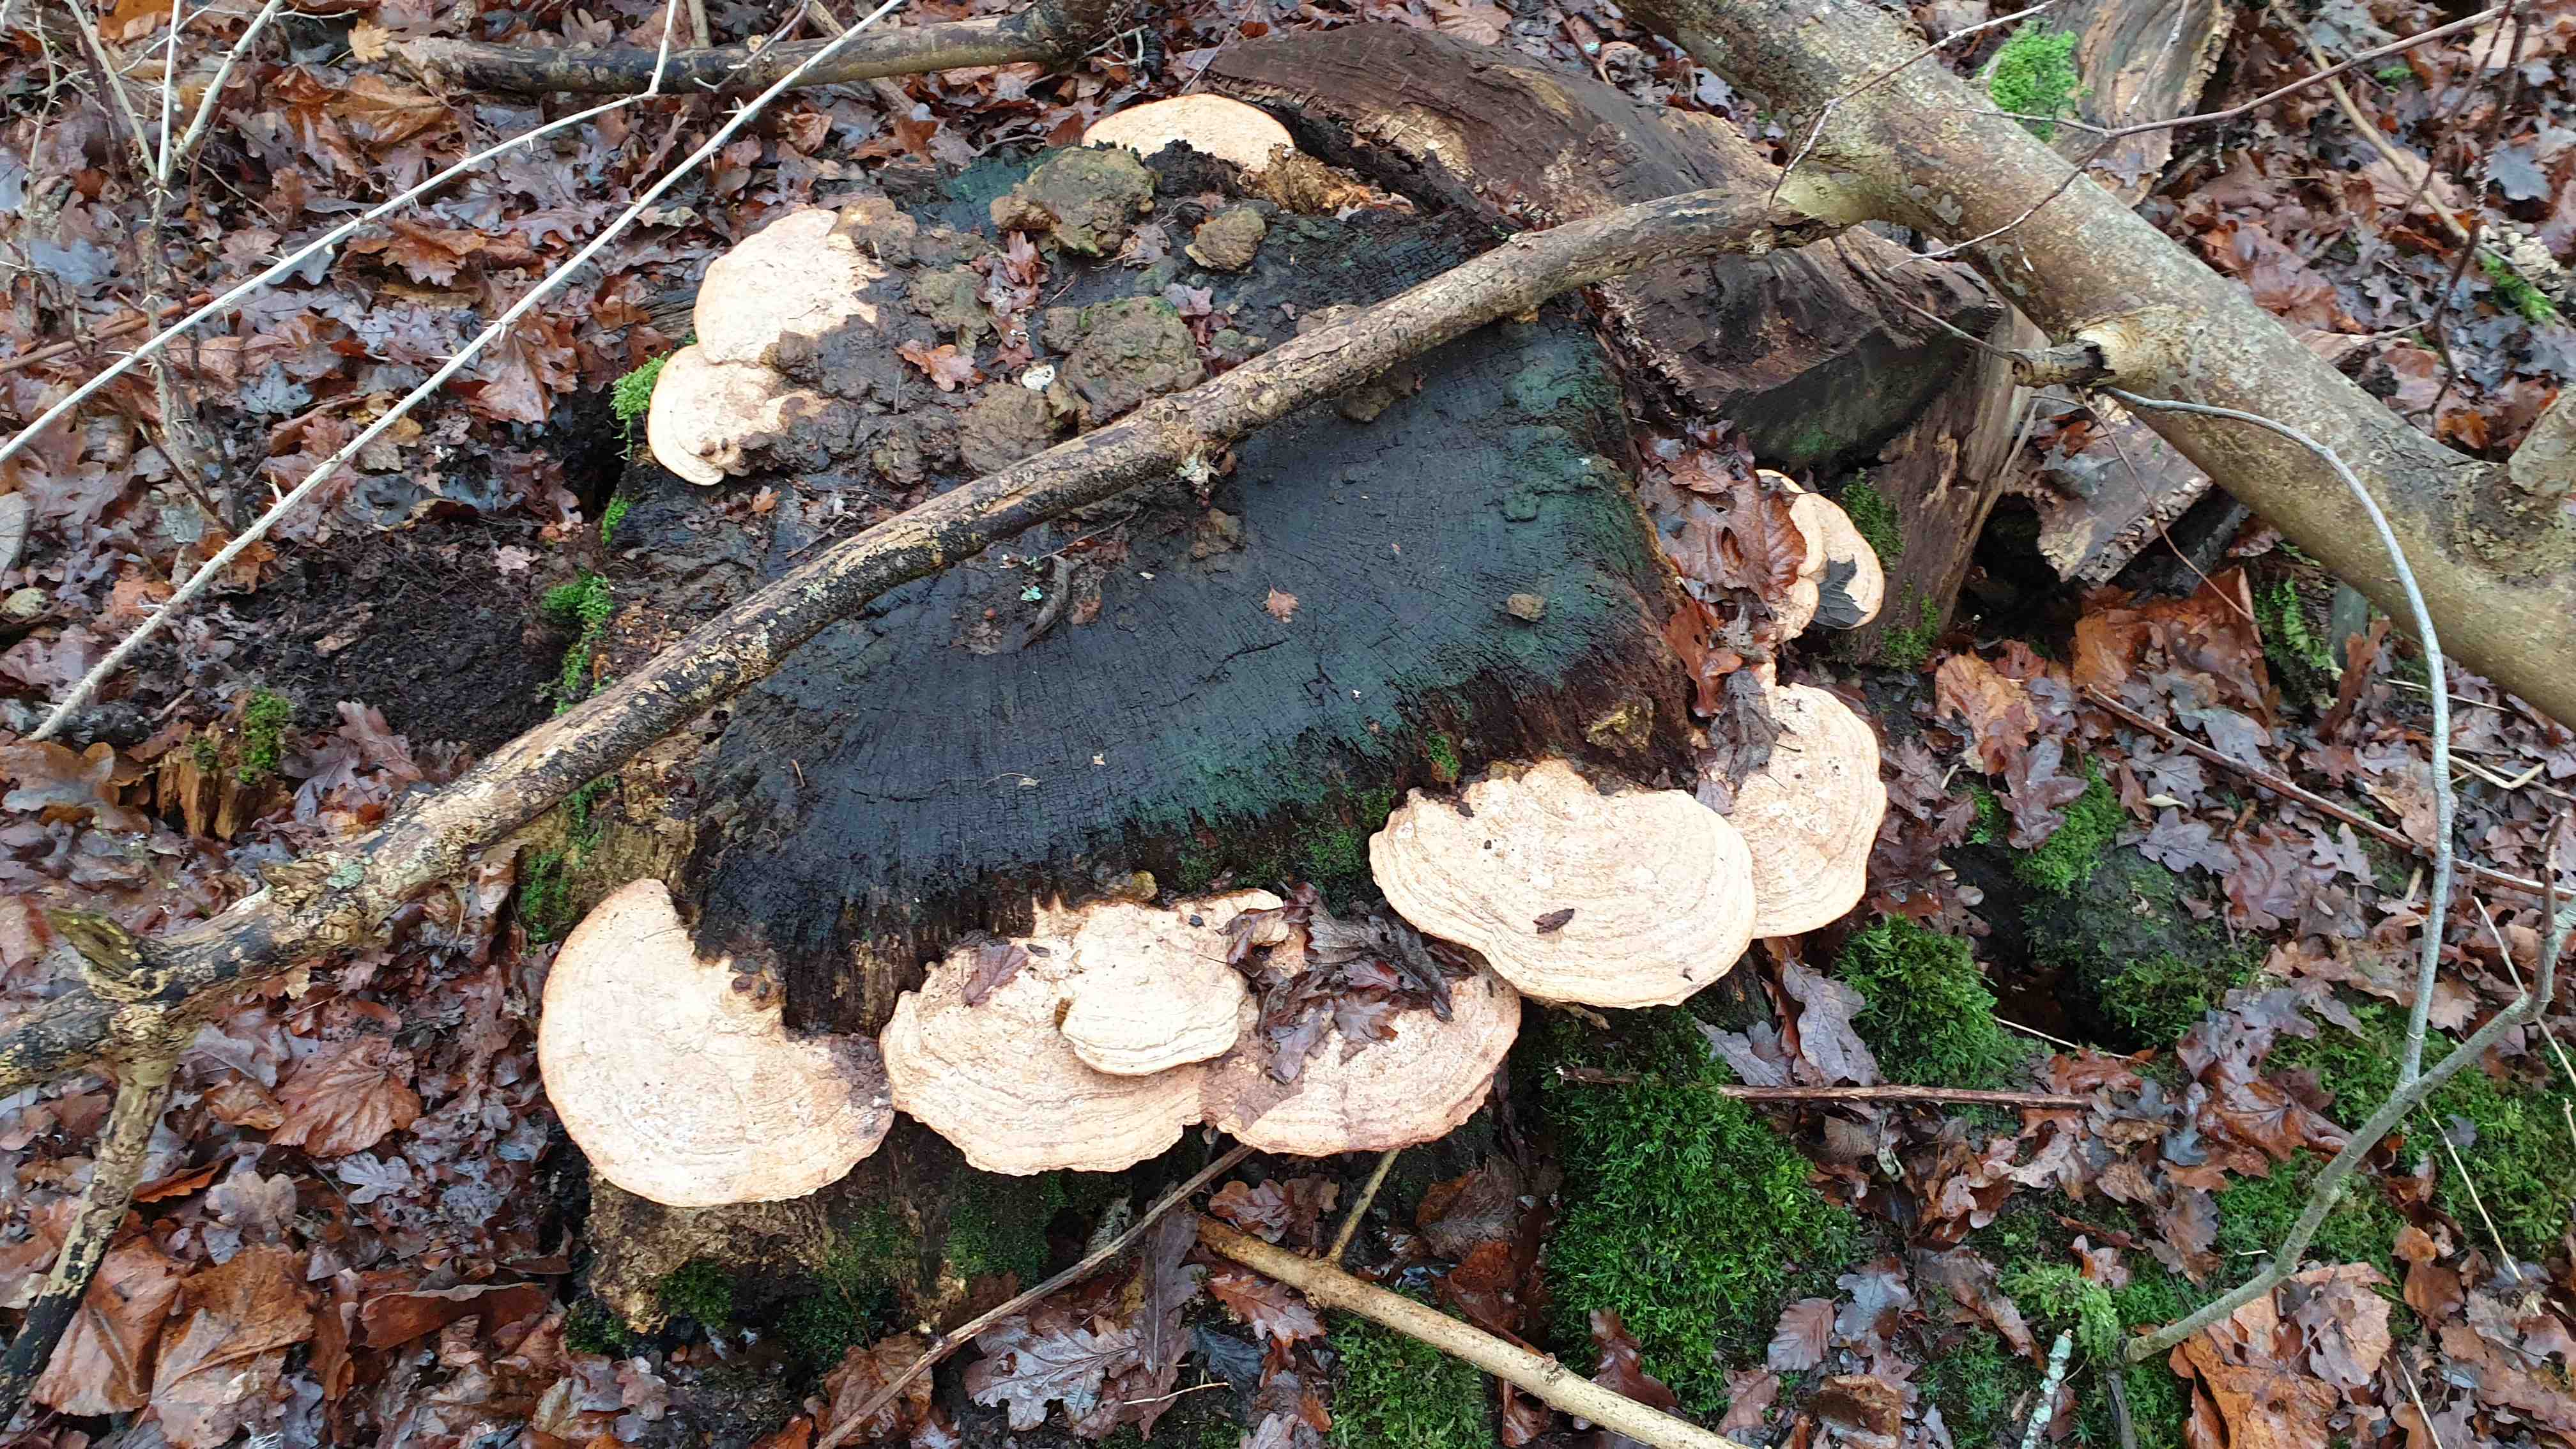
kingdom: Fungi
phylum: Basidiomycota
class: Agaricomycetes
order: Polyporales
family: Fomitopsidaceae
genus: Daedalea
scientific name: Daedalea quercina
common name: ege-labyrintsvamp
